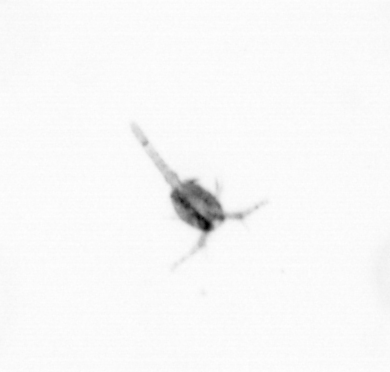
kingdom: Animalia
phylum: Arthropoda
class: Copepoda
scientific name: Copepoda
